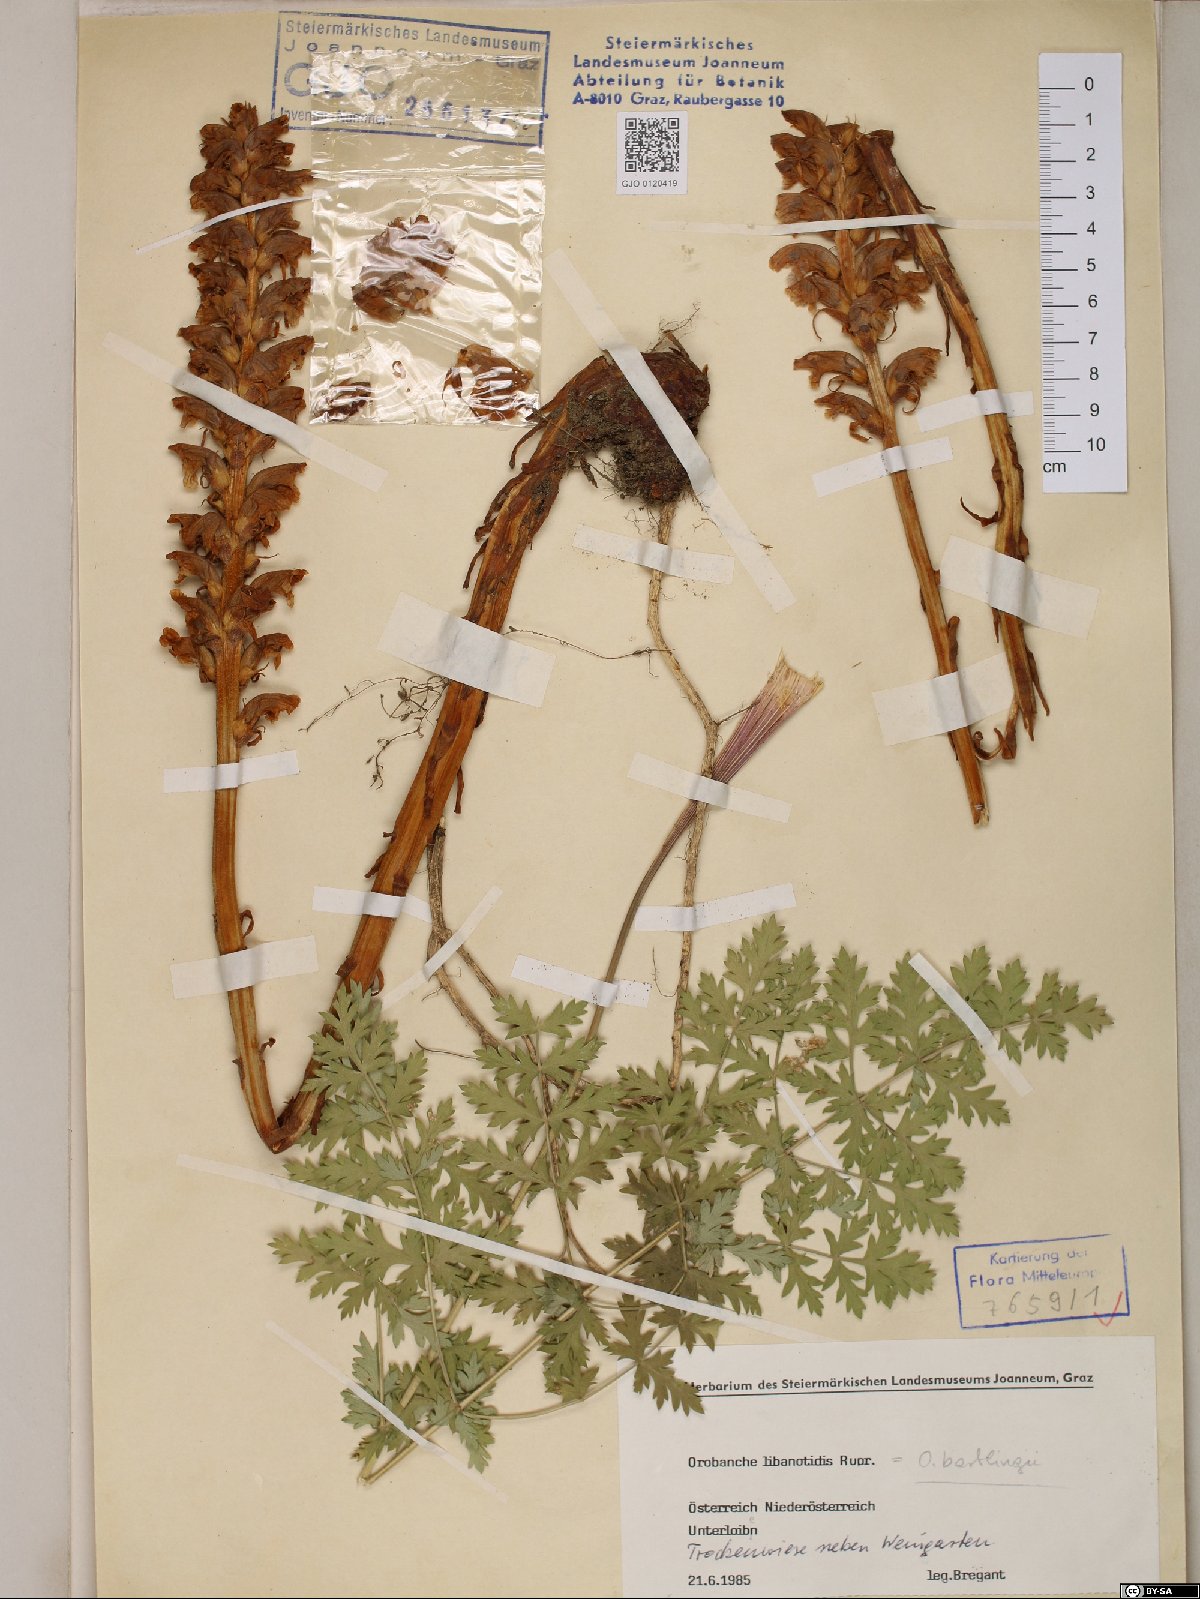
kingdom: Plantae
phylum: Tracheophyta
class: Magnoliopsida
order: Lamiales
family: Orobanchaceae
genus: Orobanche
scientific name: Orobanche alsatica
